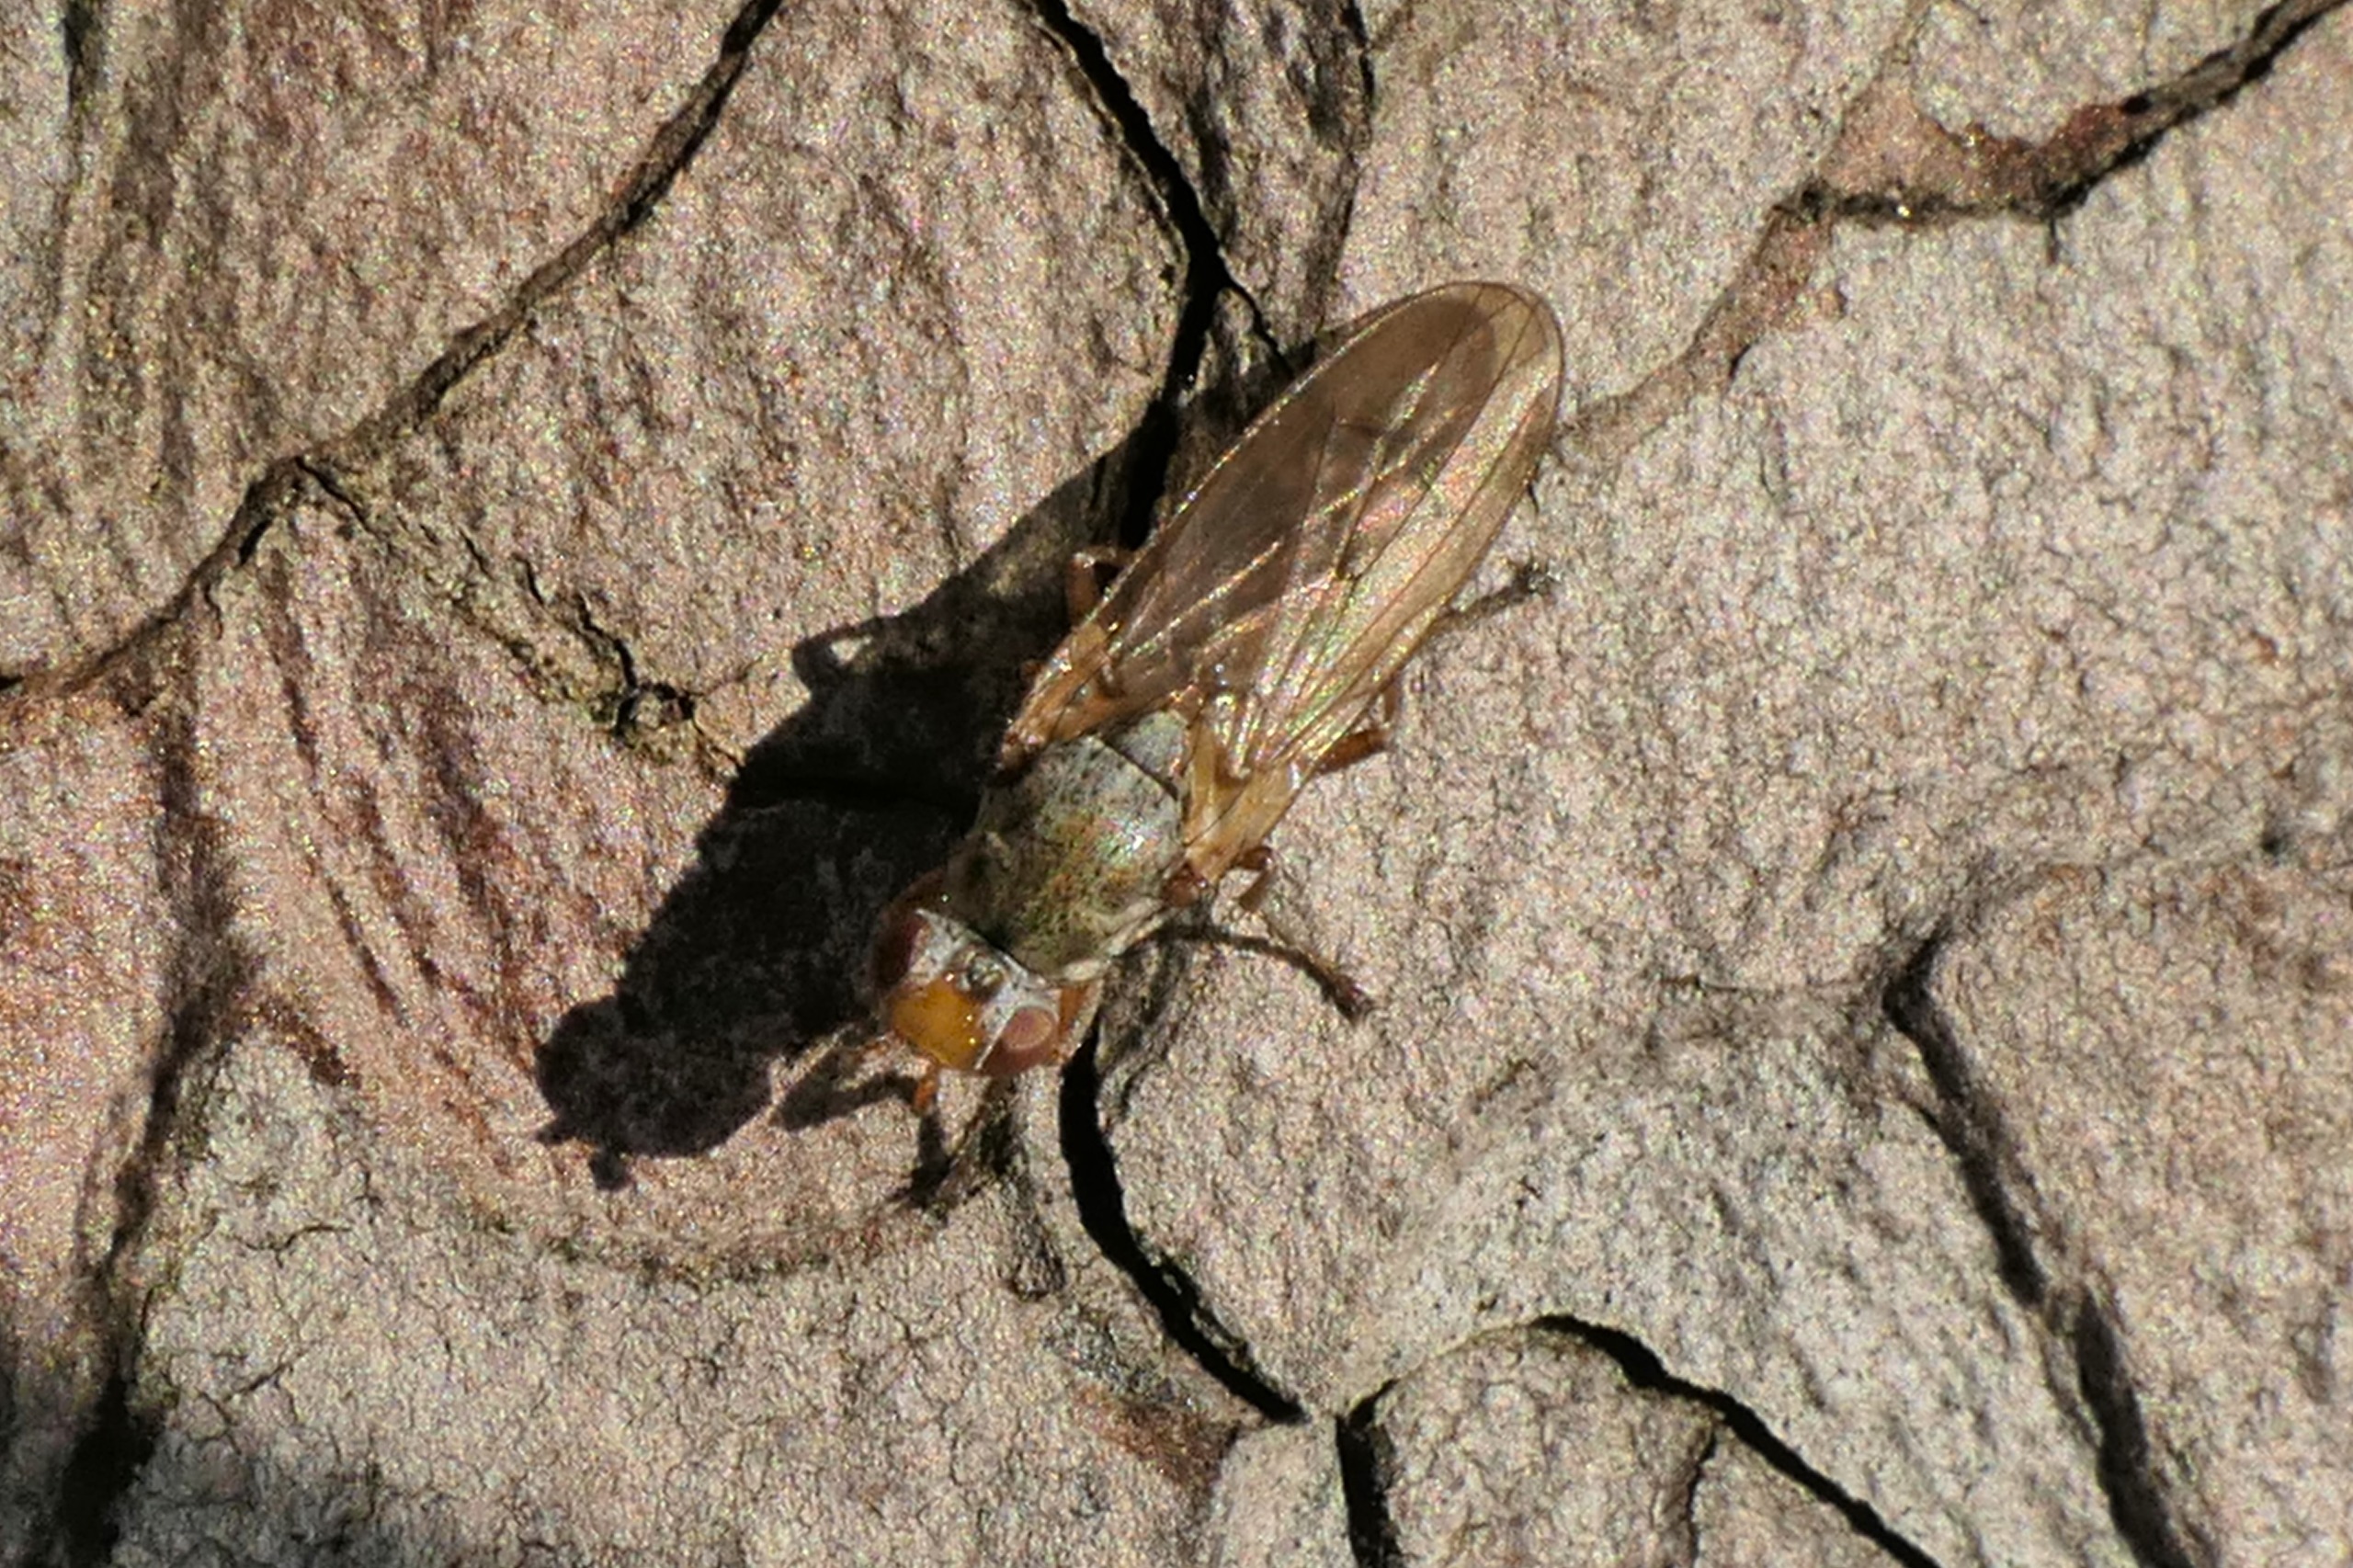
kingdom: Animalia
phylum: Arthropoda
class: Insecta
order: Diptera
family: Heterocheilidae
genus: Heterocheila
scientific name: Heterocheila buccata
